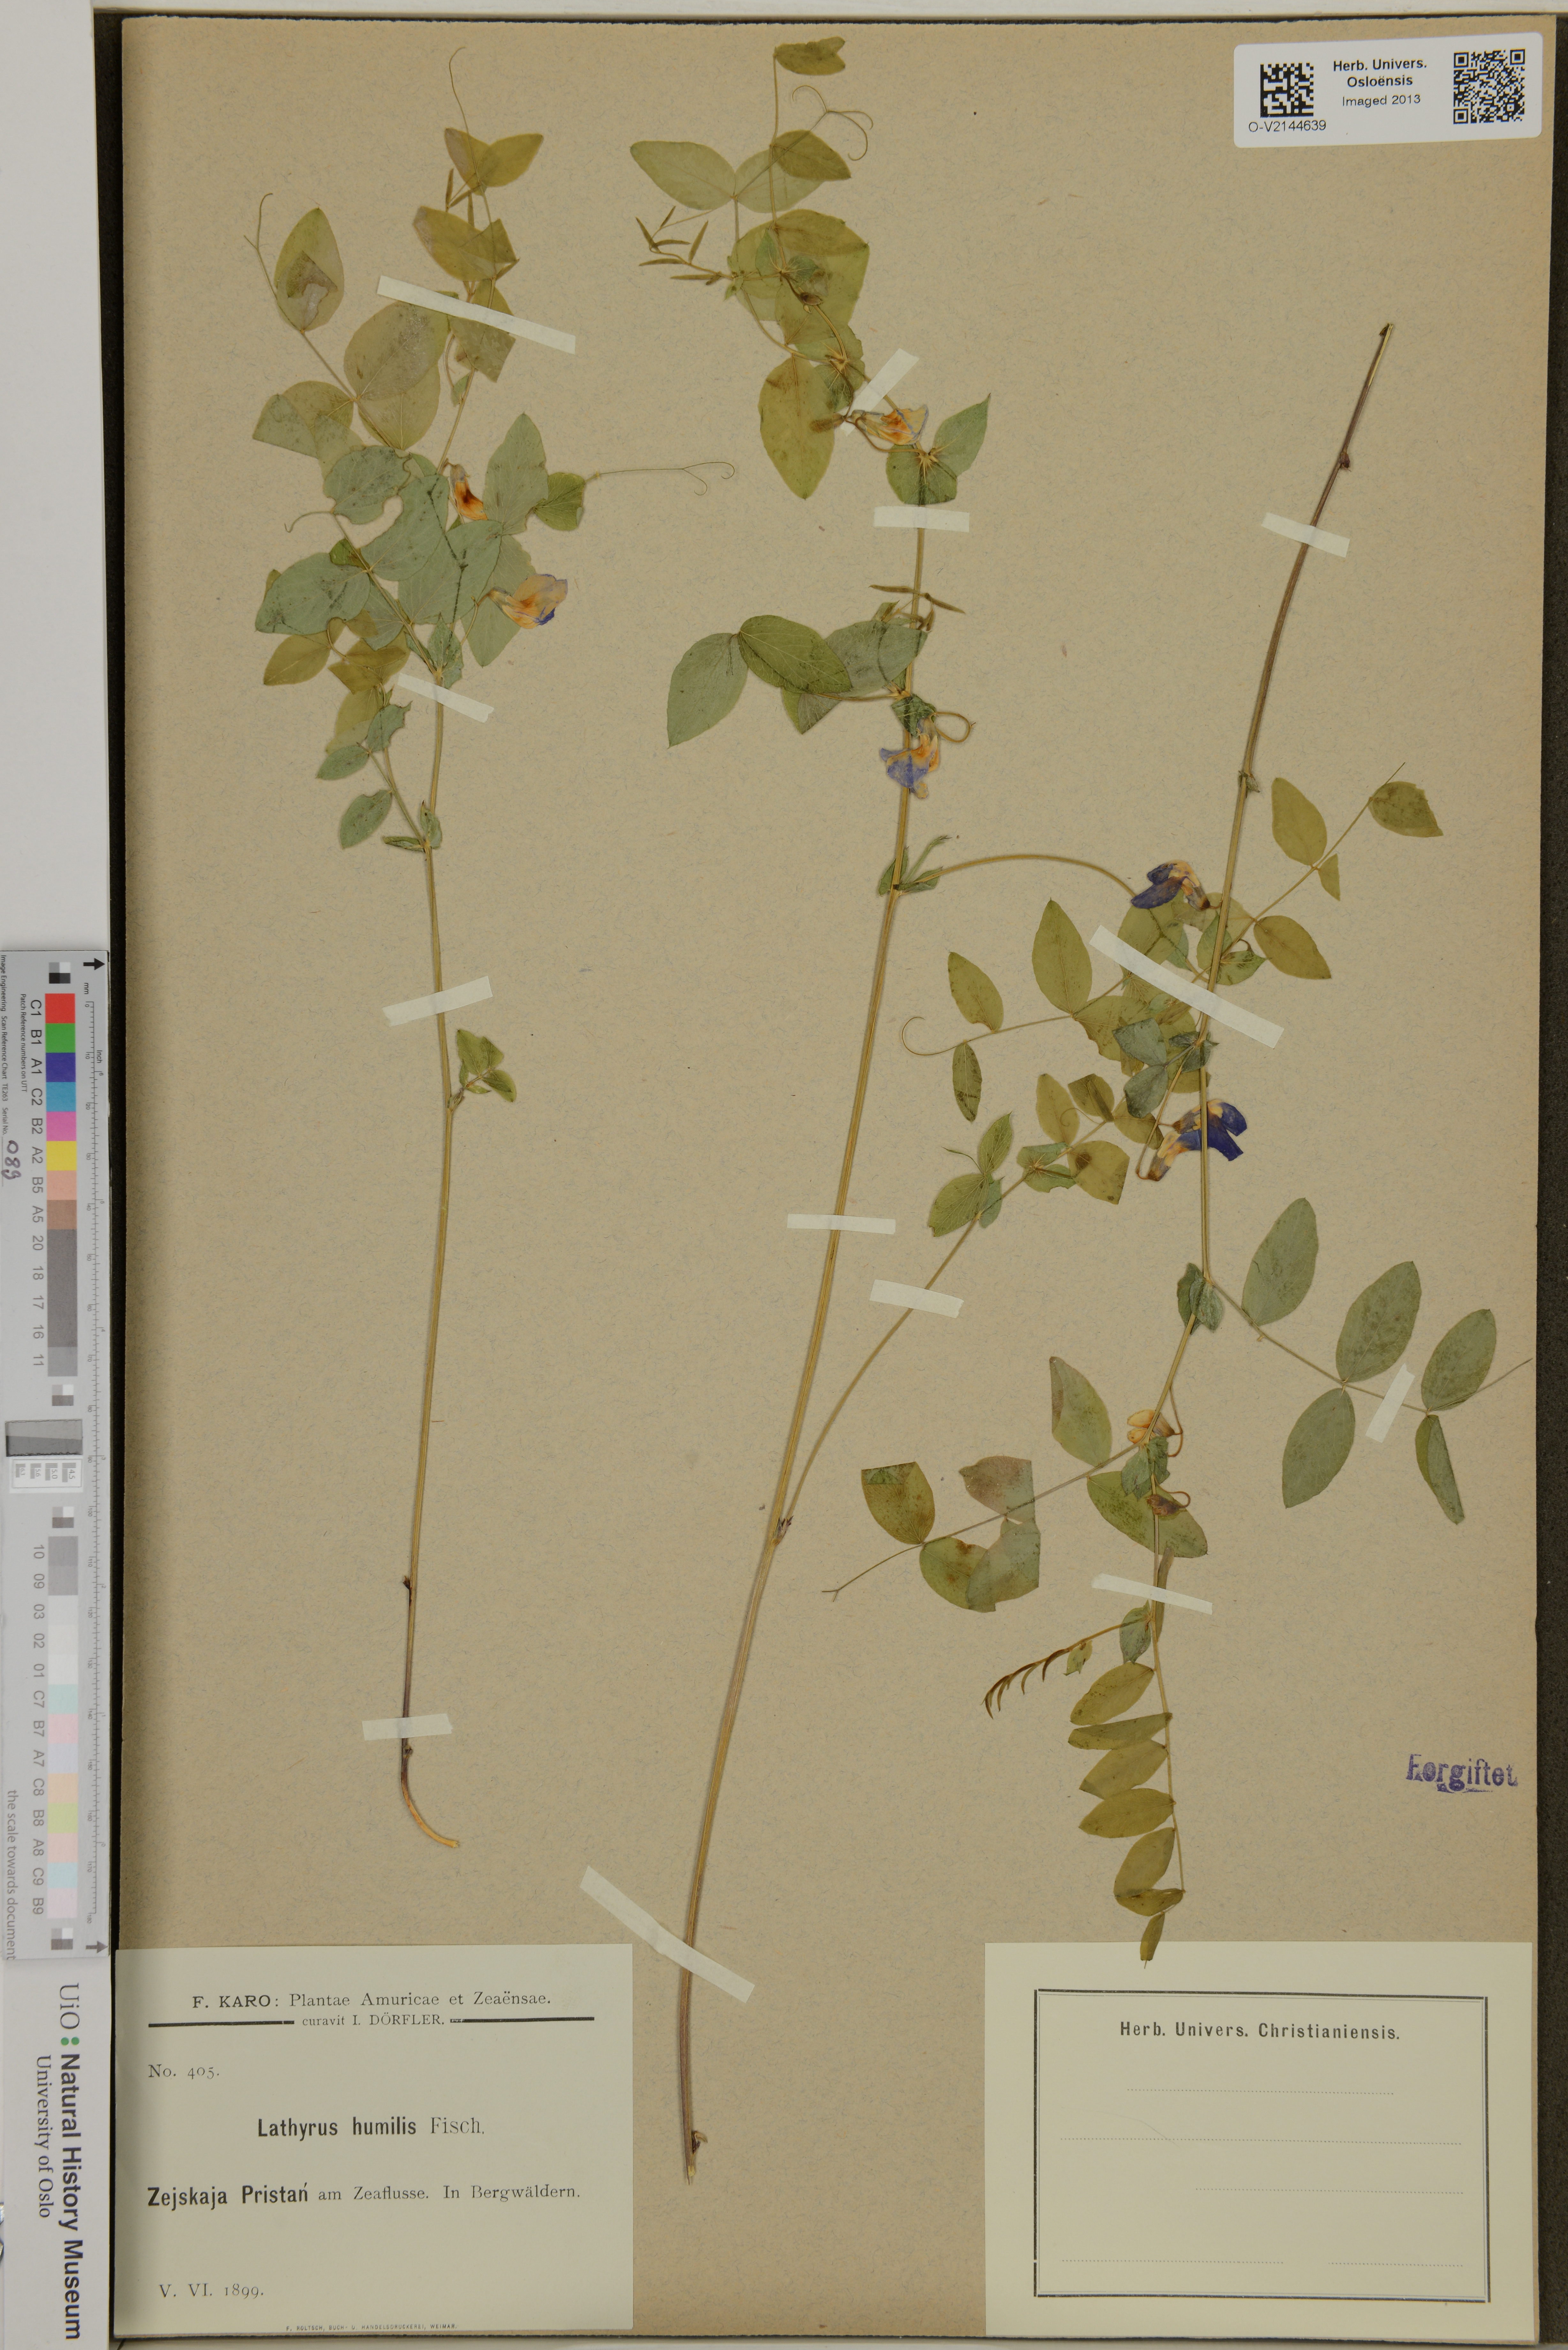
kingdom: Plantae
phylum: Tracheophyta
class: Magnoliopsida
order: Fabales
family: Fabaceae
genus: Lathyrus
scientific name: Lathyrus humilis
